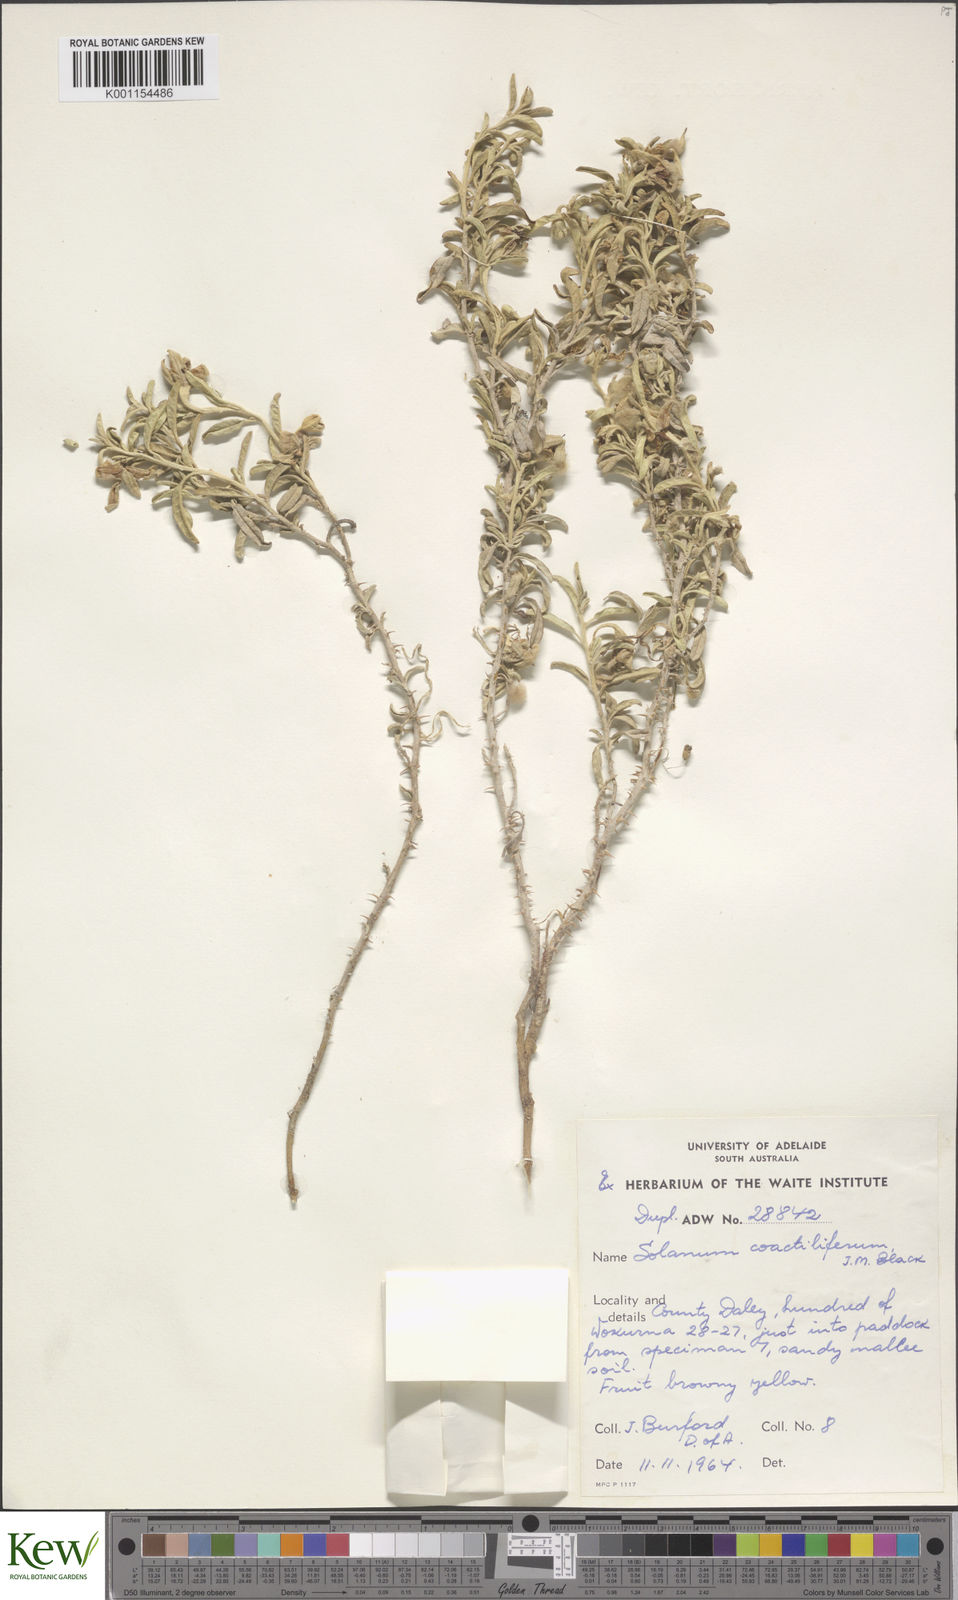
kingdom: Plantae
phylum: Tracheophyta
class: Magnoliopsida
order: Solanales
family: Solanaceae
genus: Solanum
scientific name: Solanum coactiliferum
